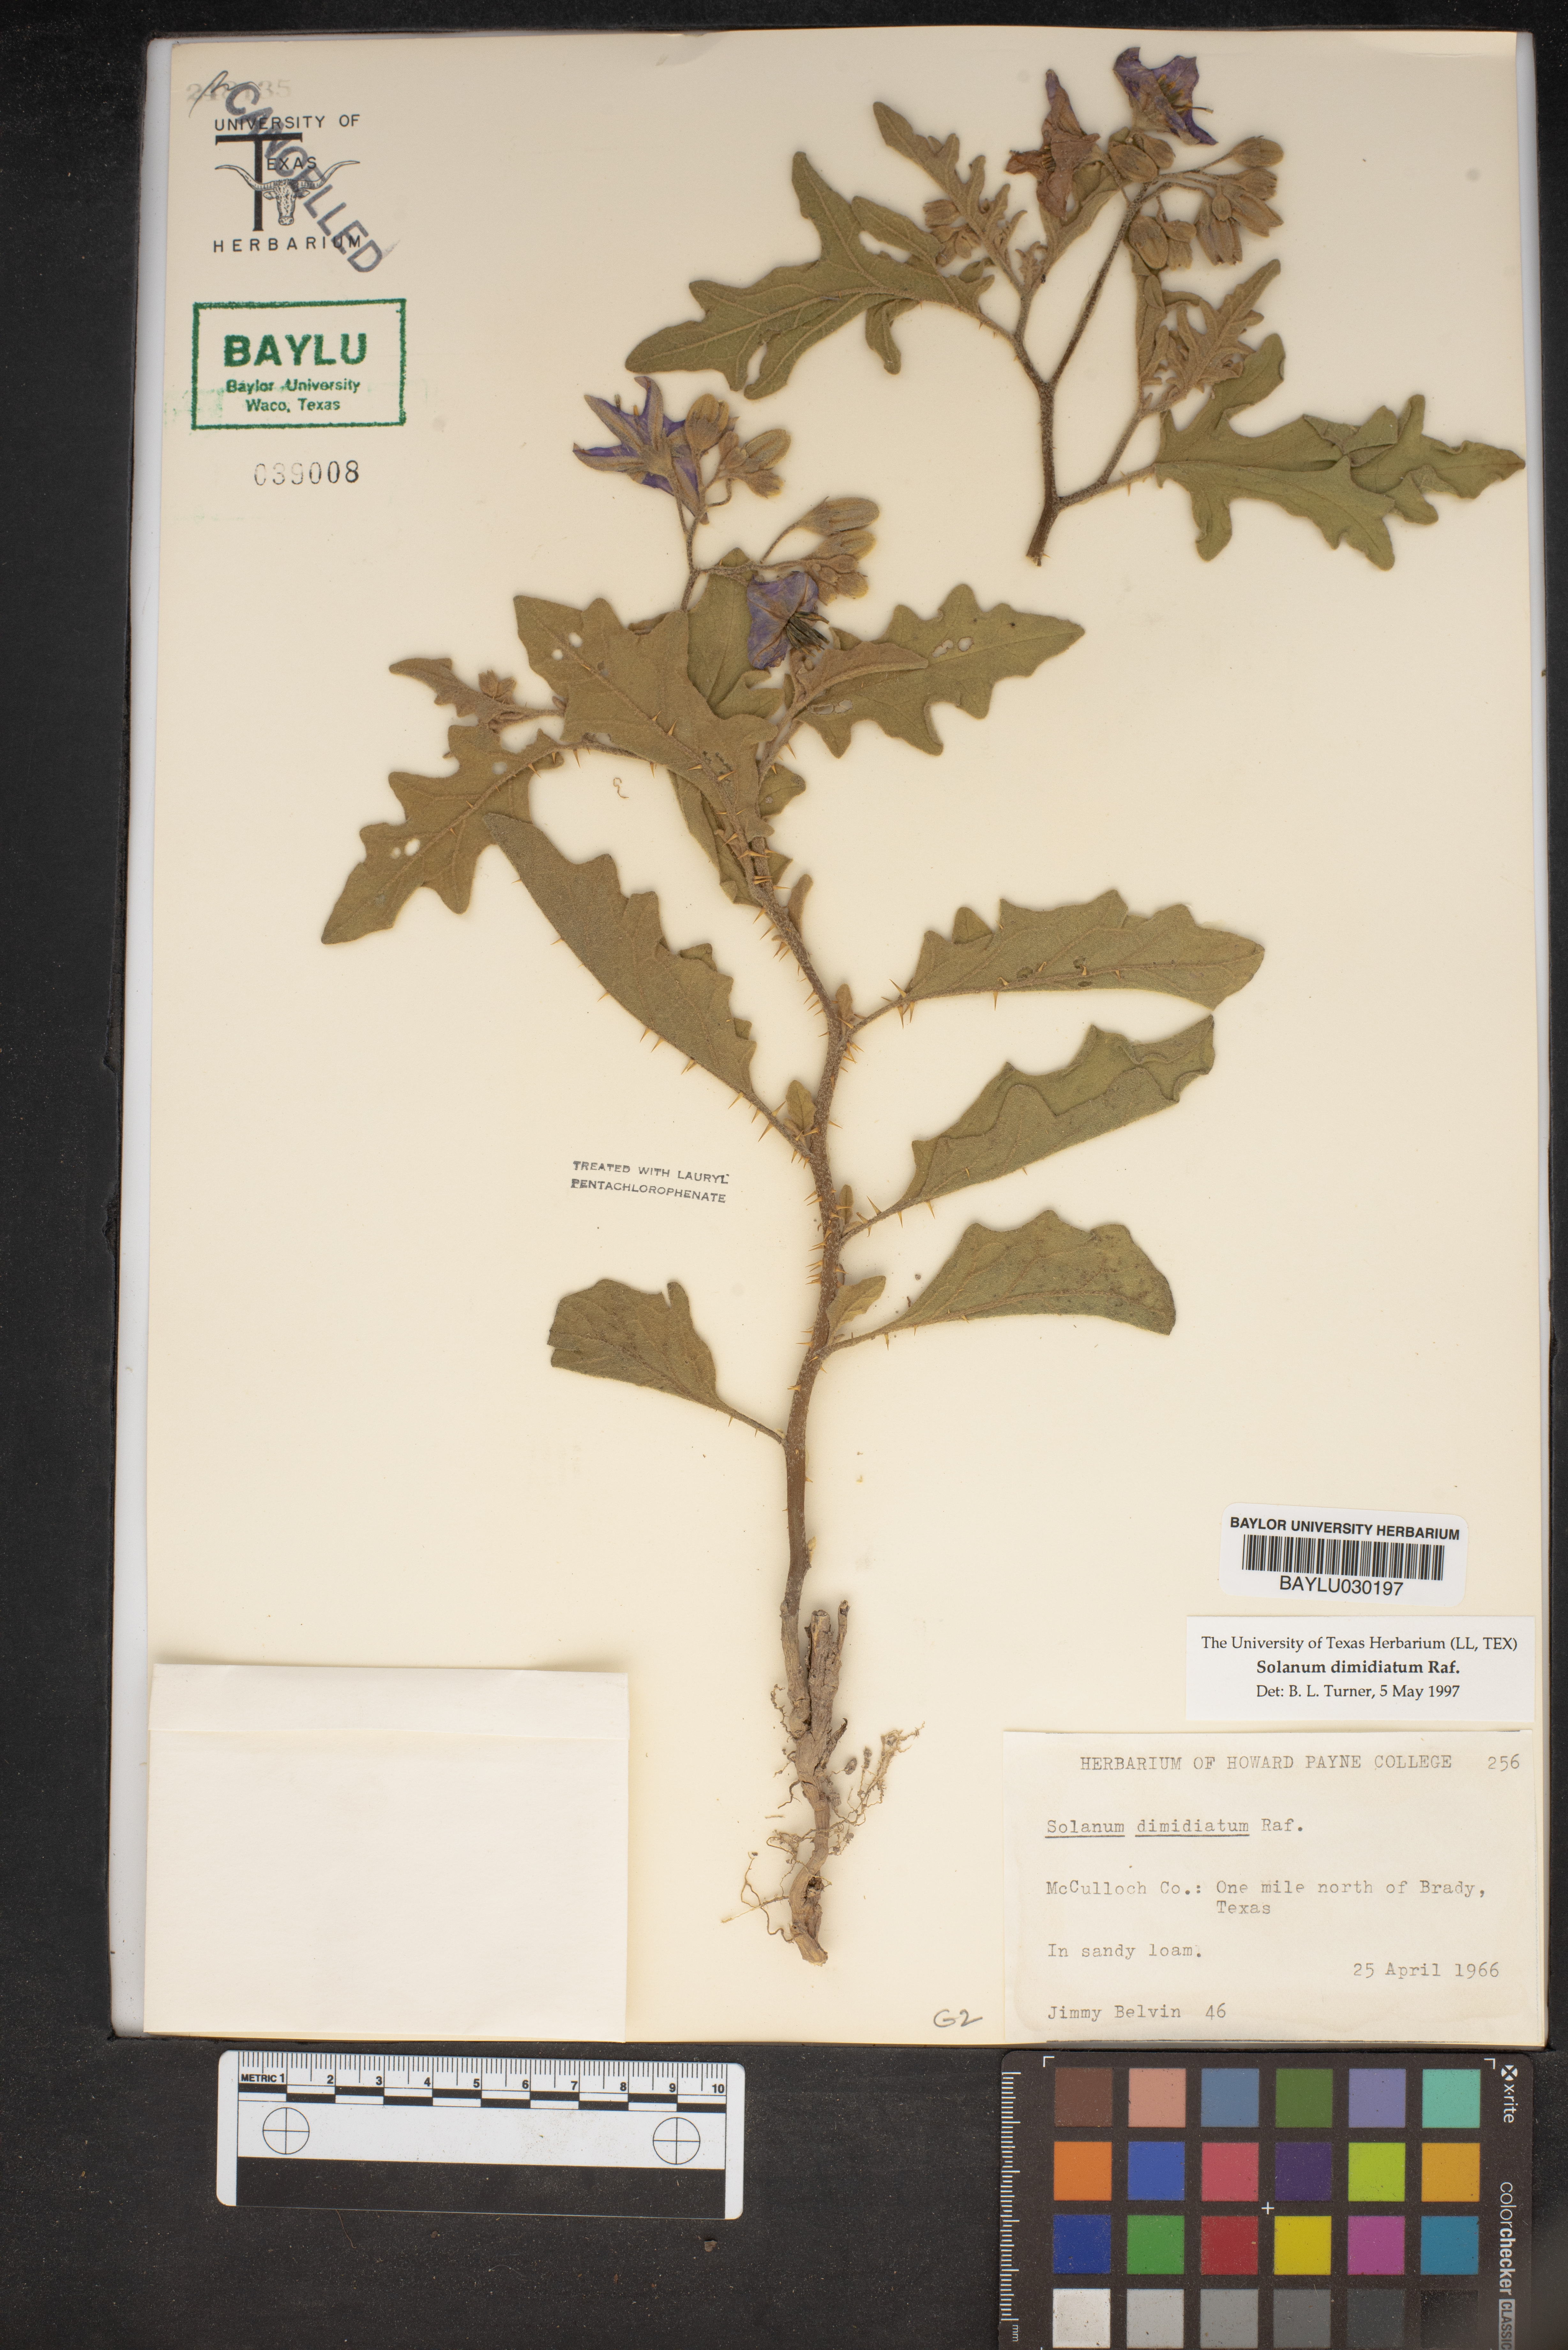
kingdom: Plantae
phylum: Tracheophyta
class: Magnoliopsida
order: Solanales
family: Solanaceae
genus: Solanum
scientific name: Solanum dimidiatum
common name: Carolina horse-nettle
